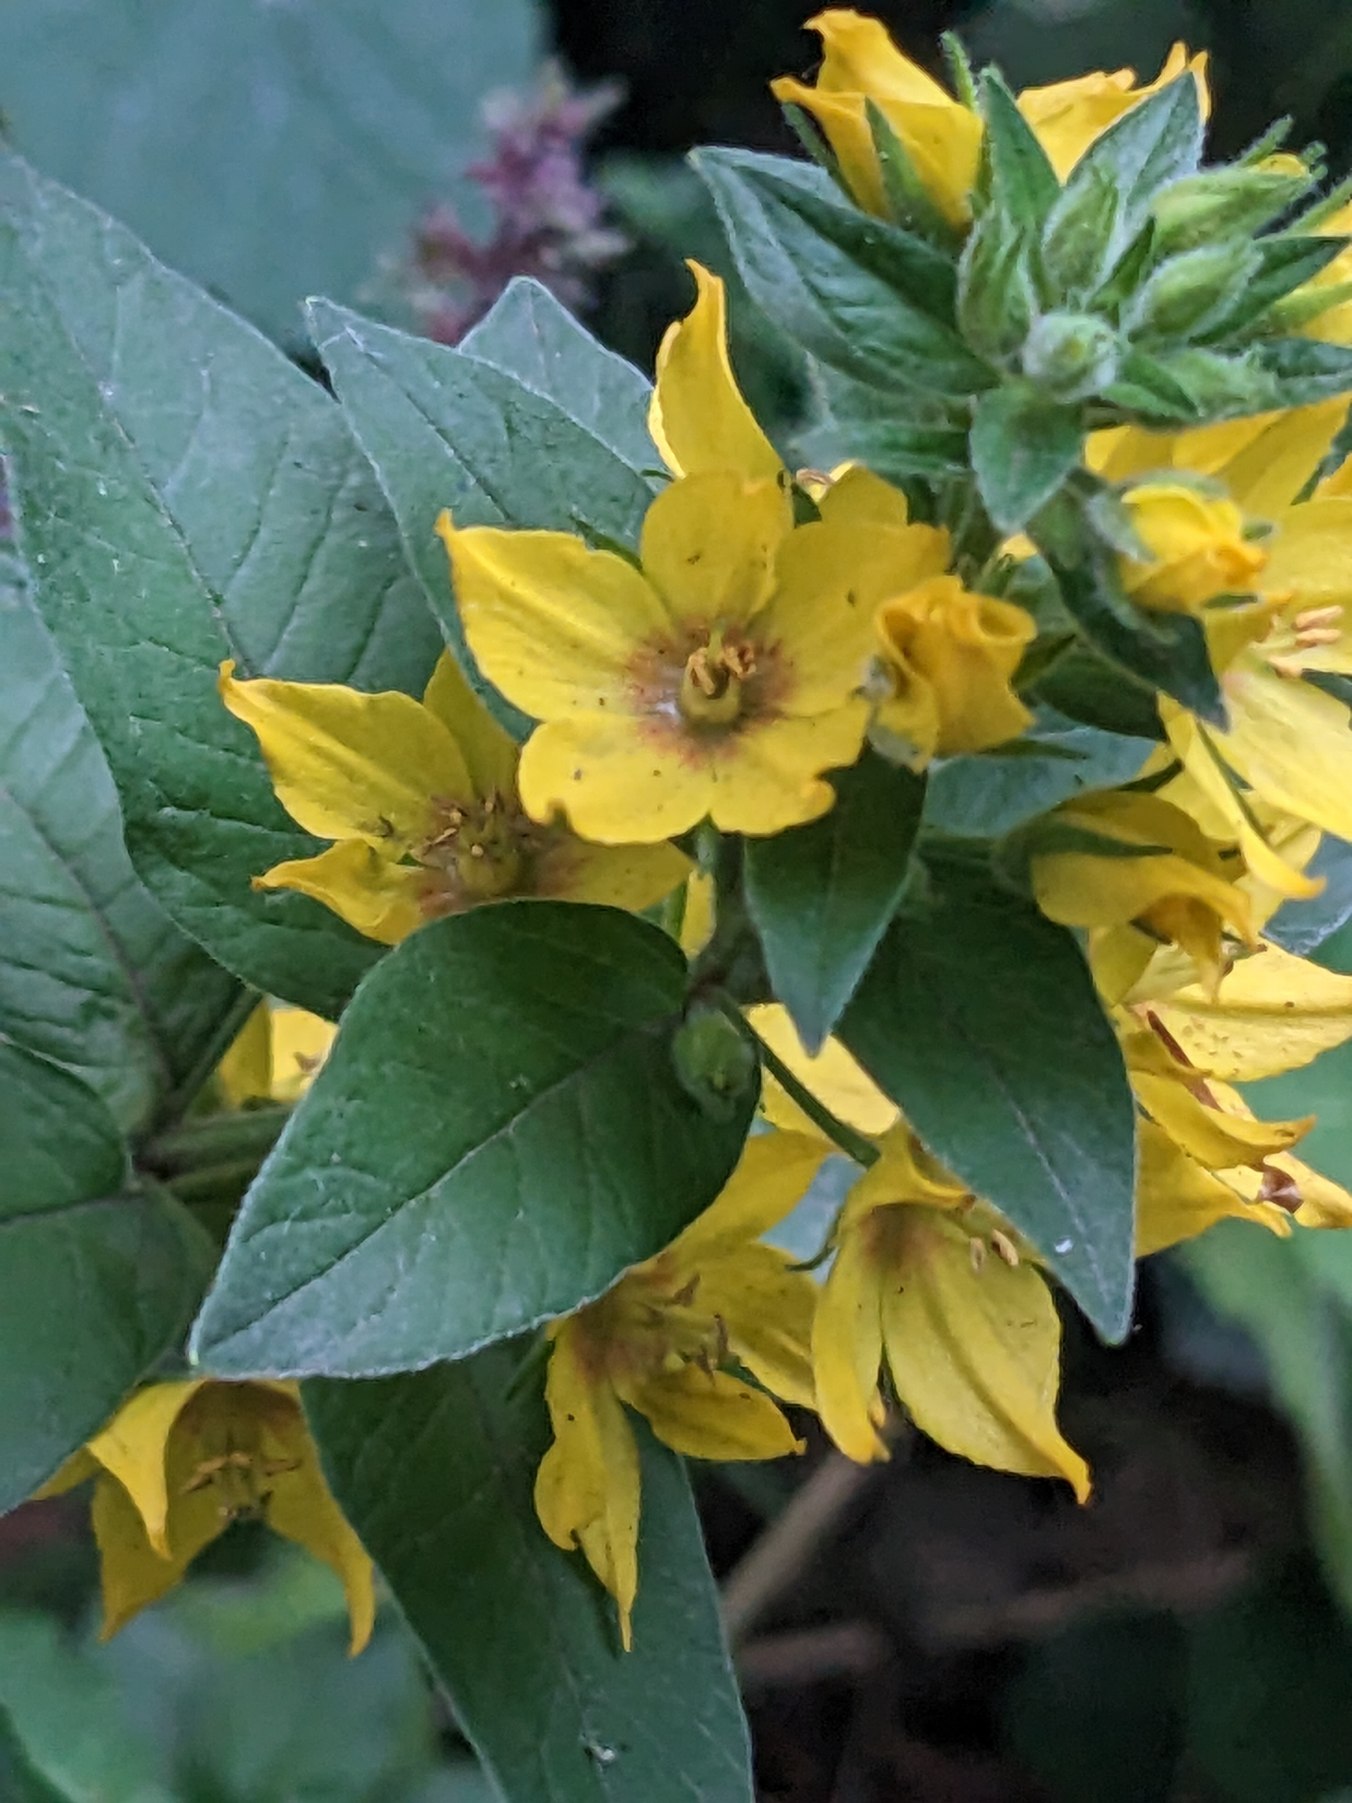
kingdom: Plantae
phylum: Tracheophyta
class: Magnoliopsida
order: Ericales
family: Primulaceae
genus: Lysimachia
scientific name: Lysimachia punctata
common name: Prikbladet fredløs
